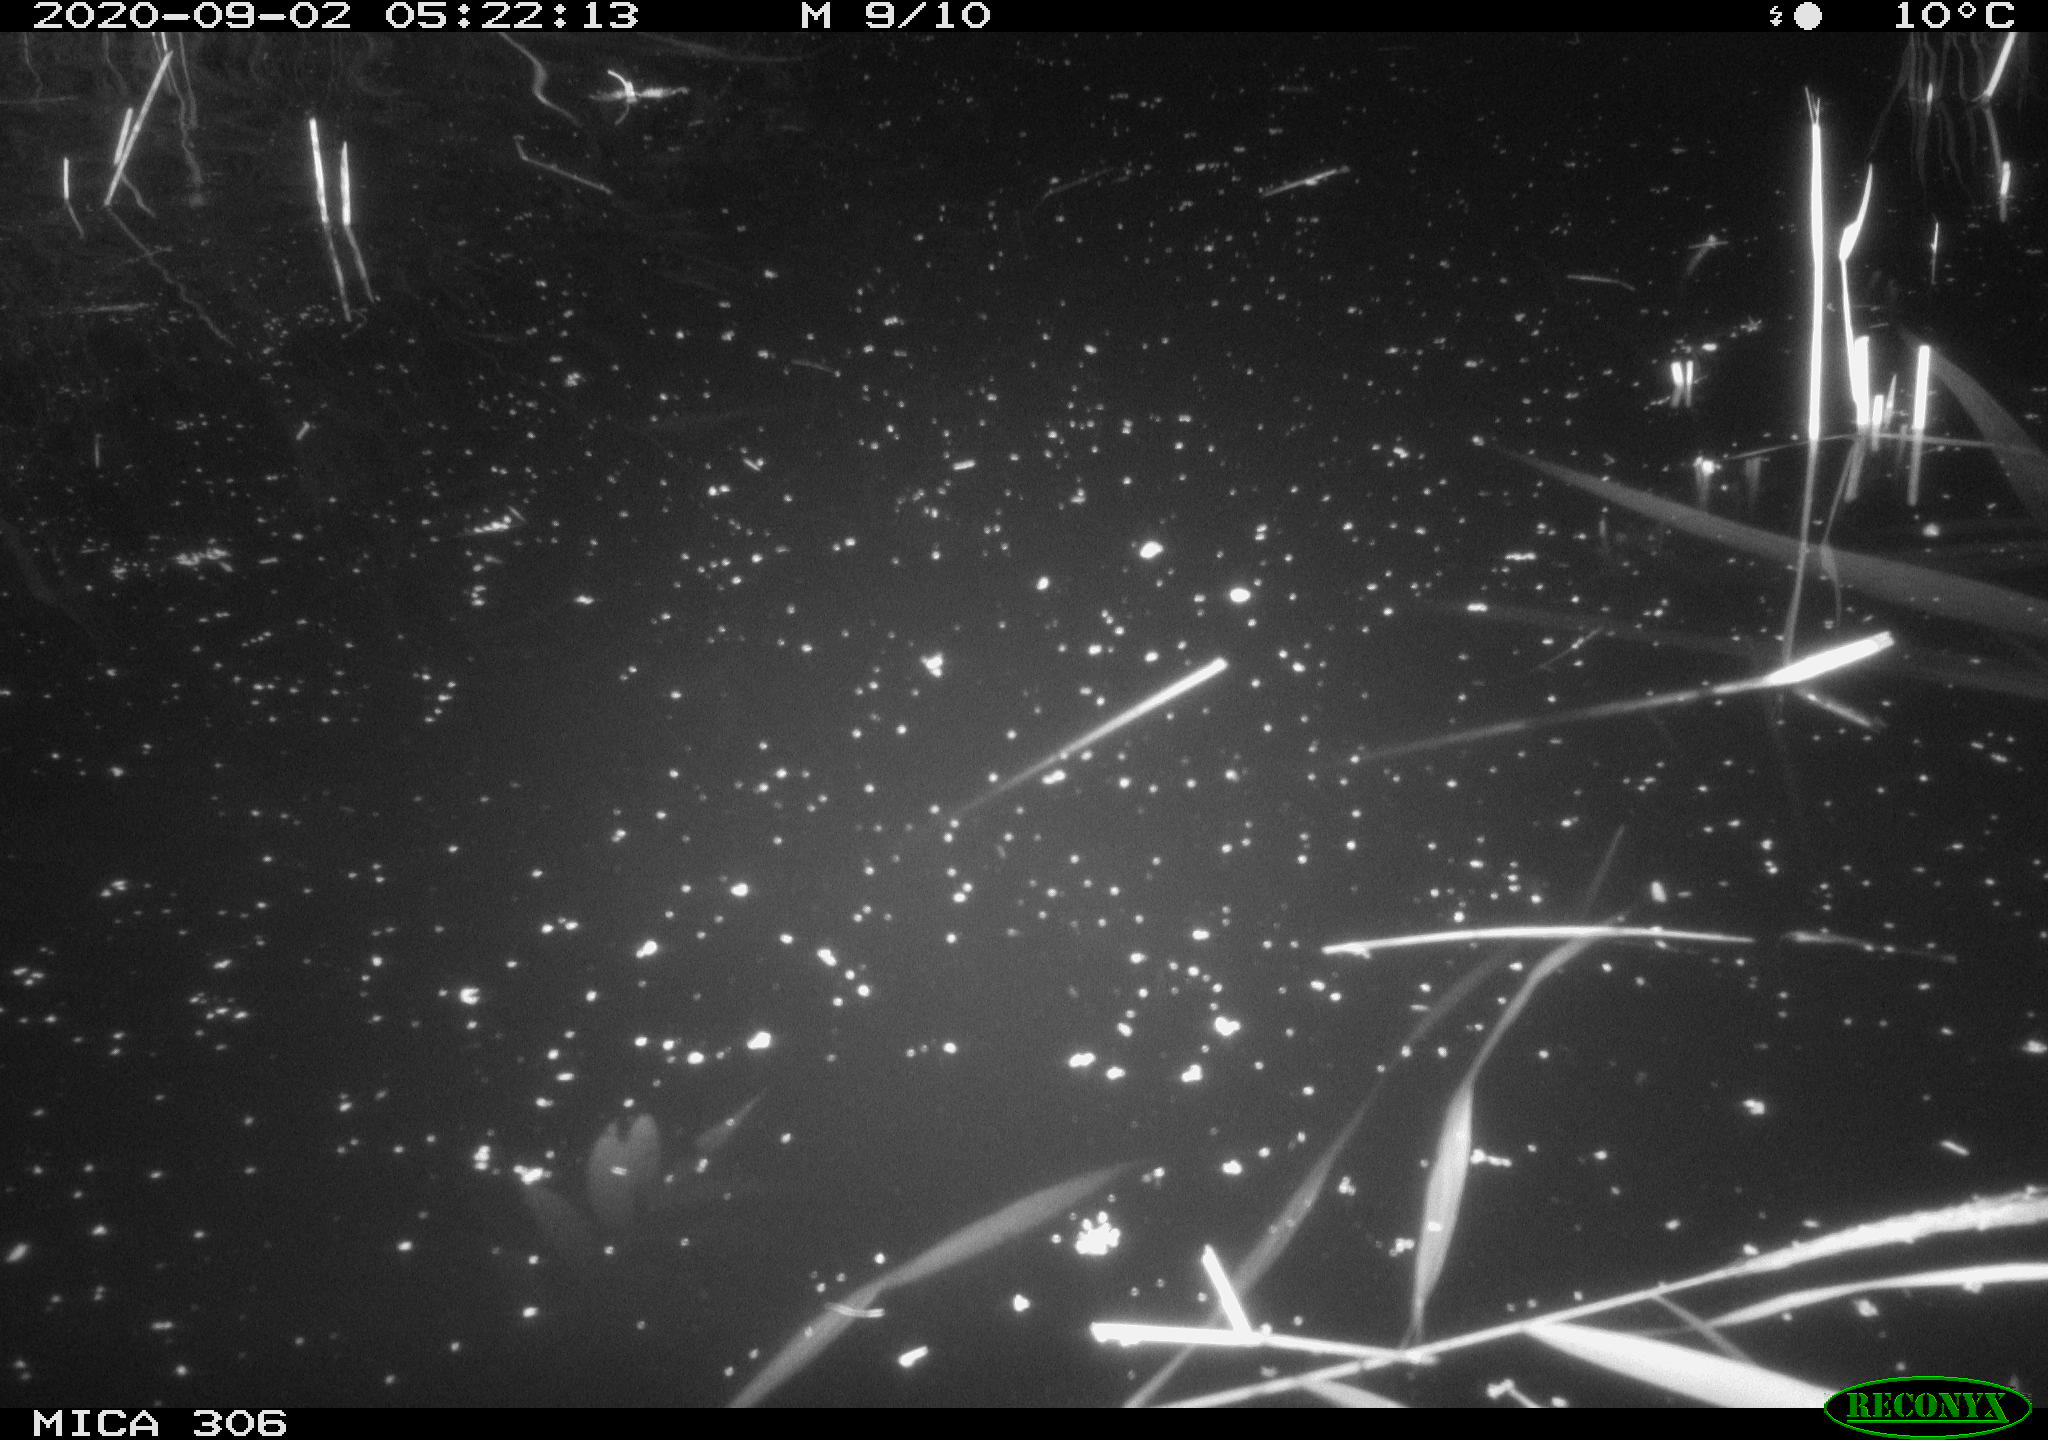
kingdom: Animalia
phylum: Chordata
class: Mammalia
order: Rodentia
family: Muridae
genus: Rattus
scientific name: Rattus norvegicus
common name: Brown rat
